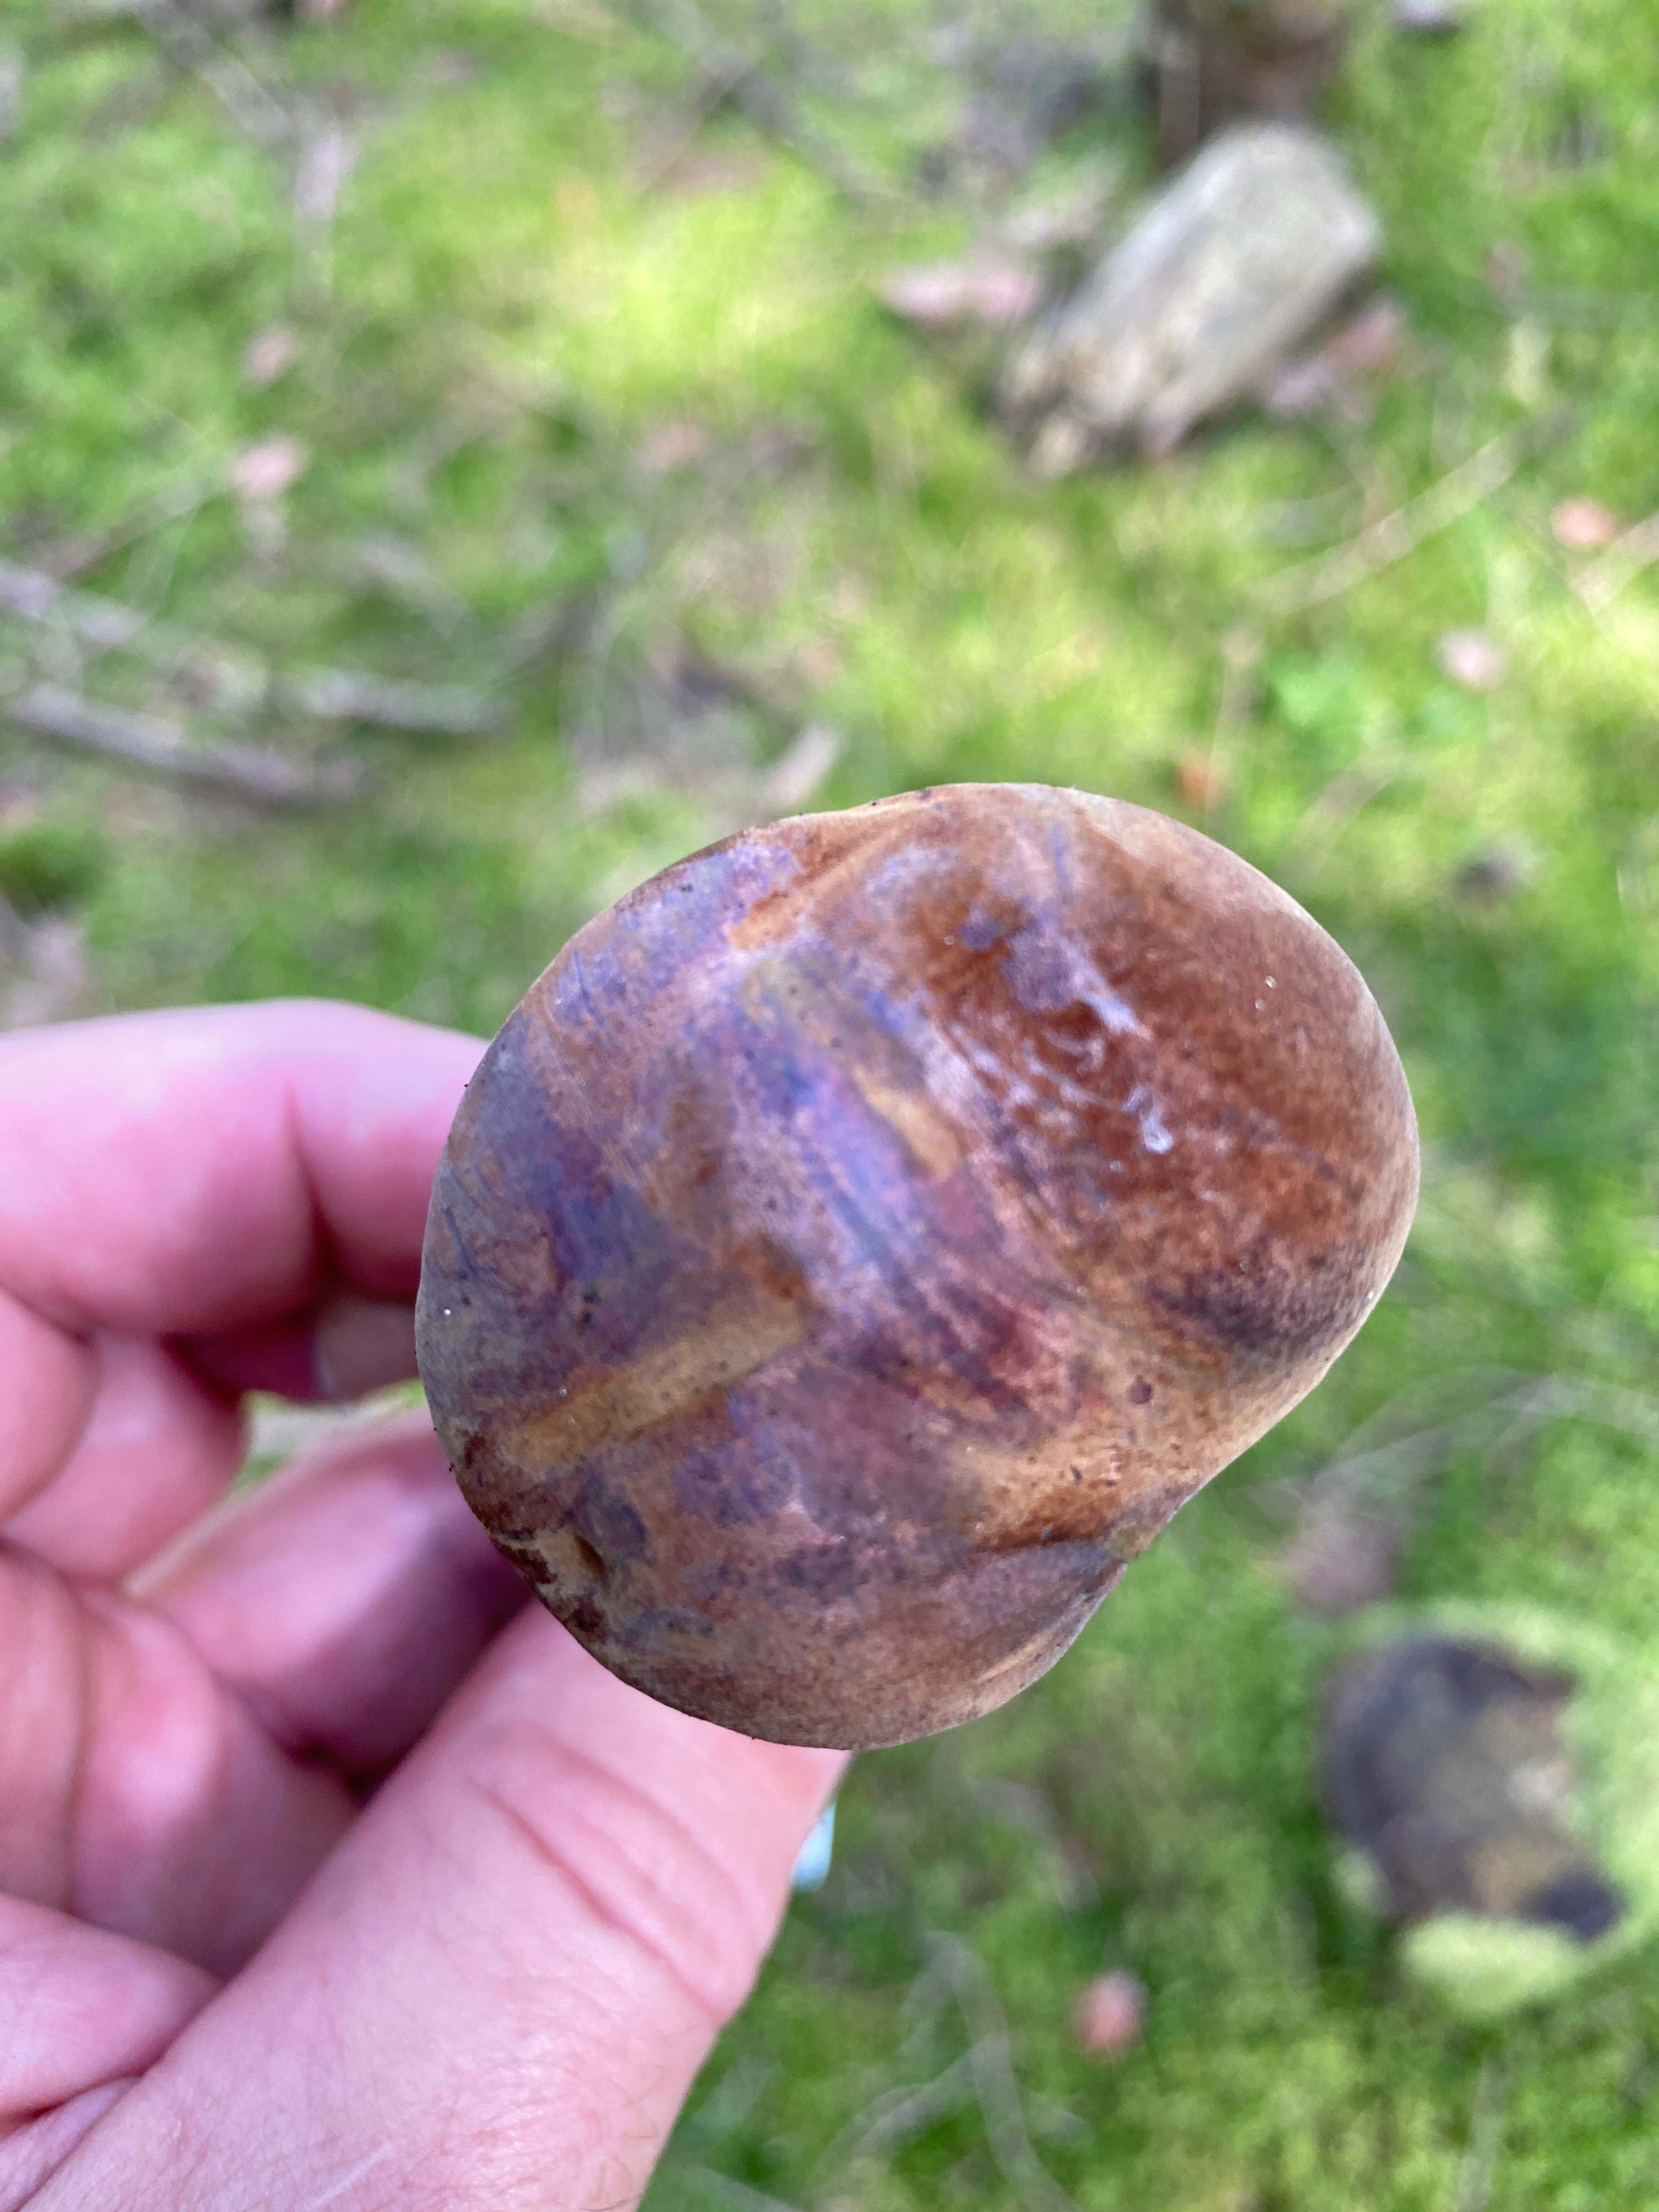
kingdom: Fungi
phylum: Basidiomycota
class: Agaricomycetes
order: Boletales
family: Boletaceae
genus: Imleria
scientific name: Imleria badia
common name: brunstokket rørhat
